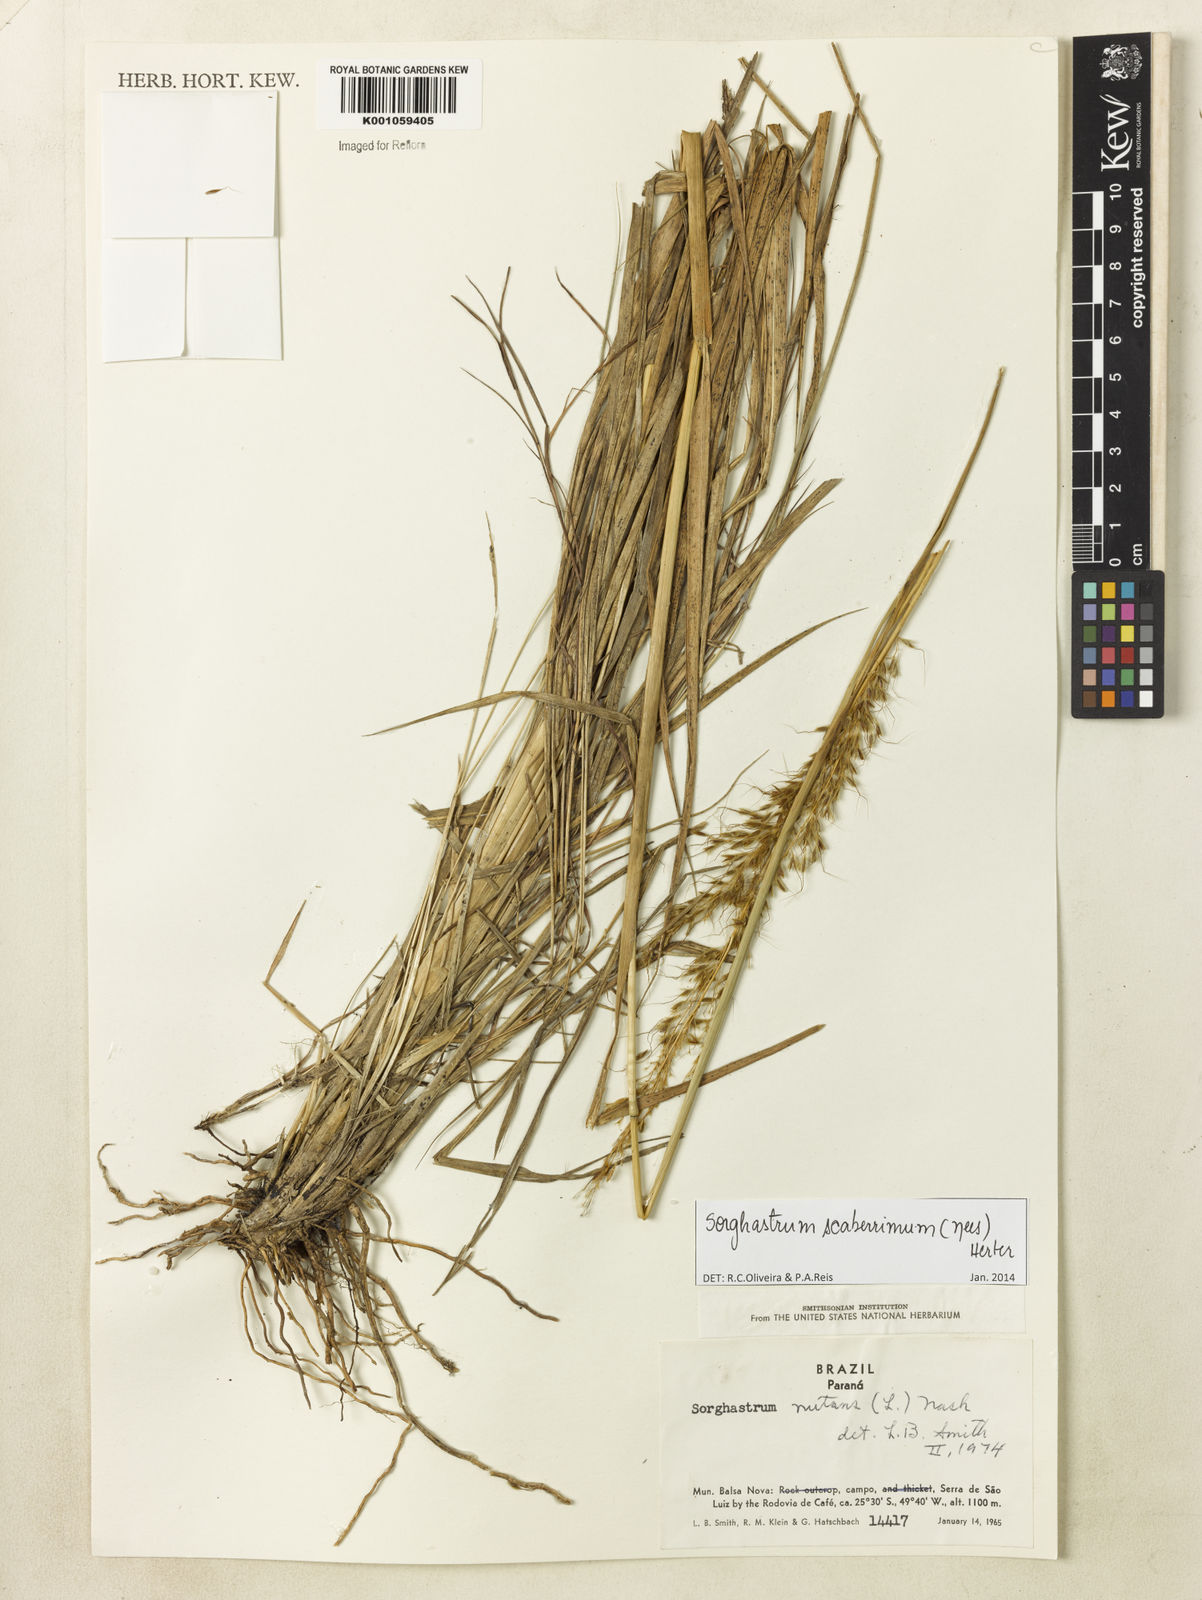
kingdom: Plantae
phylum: Tracheophyta
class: Liliopsida
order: Poales
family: Poaceae
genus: Sorghastrum
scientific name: Sorghastrum scaberrimum
